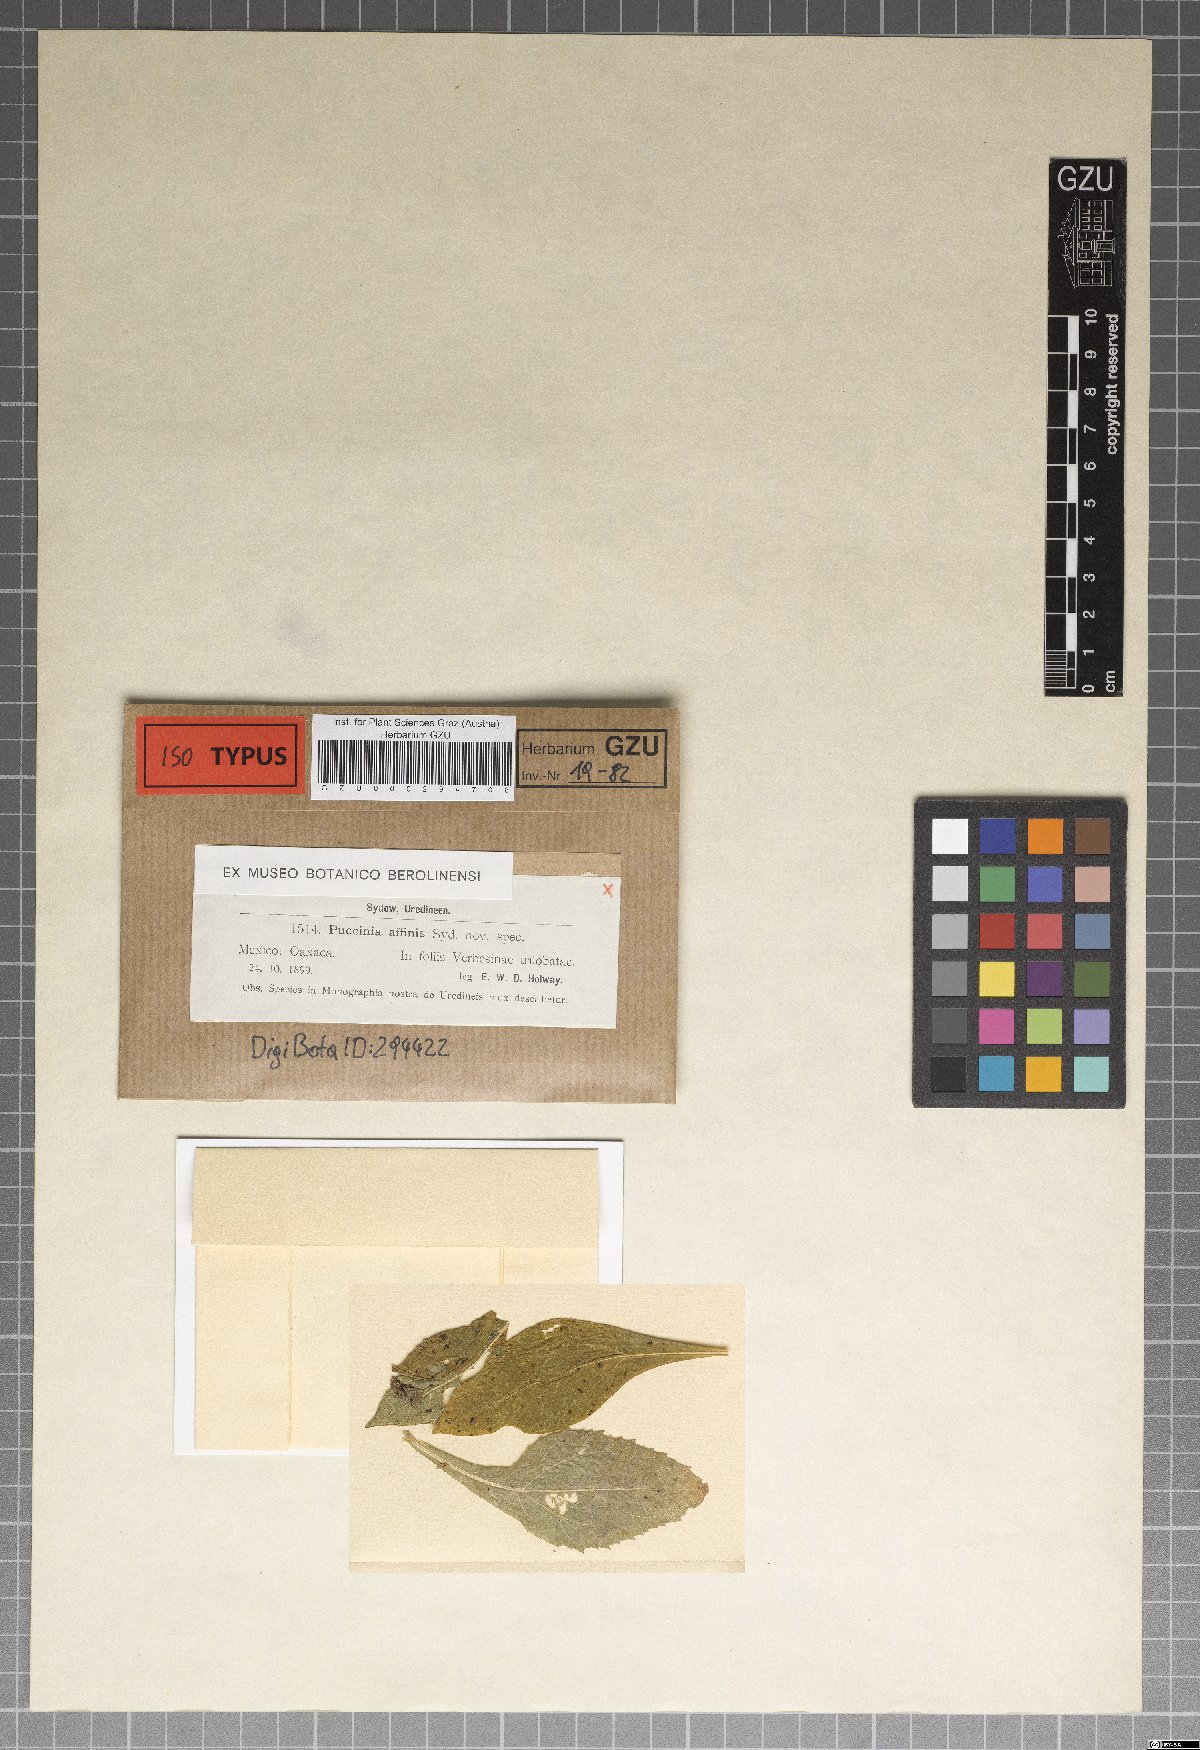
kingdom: Fungi
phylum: Basidiomycota
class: Pucciniomycetes
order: Pucciniales
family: Pucciniaceae
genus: Puccinia
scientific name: Puccinia
